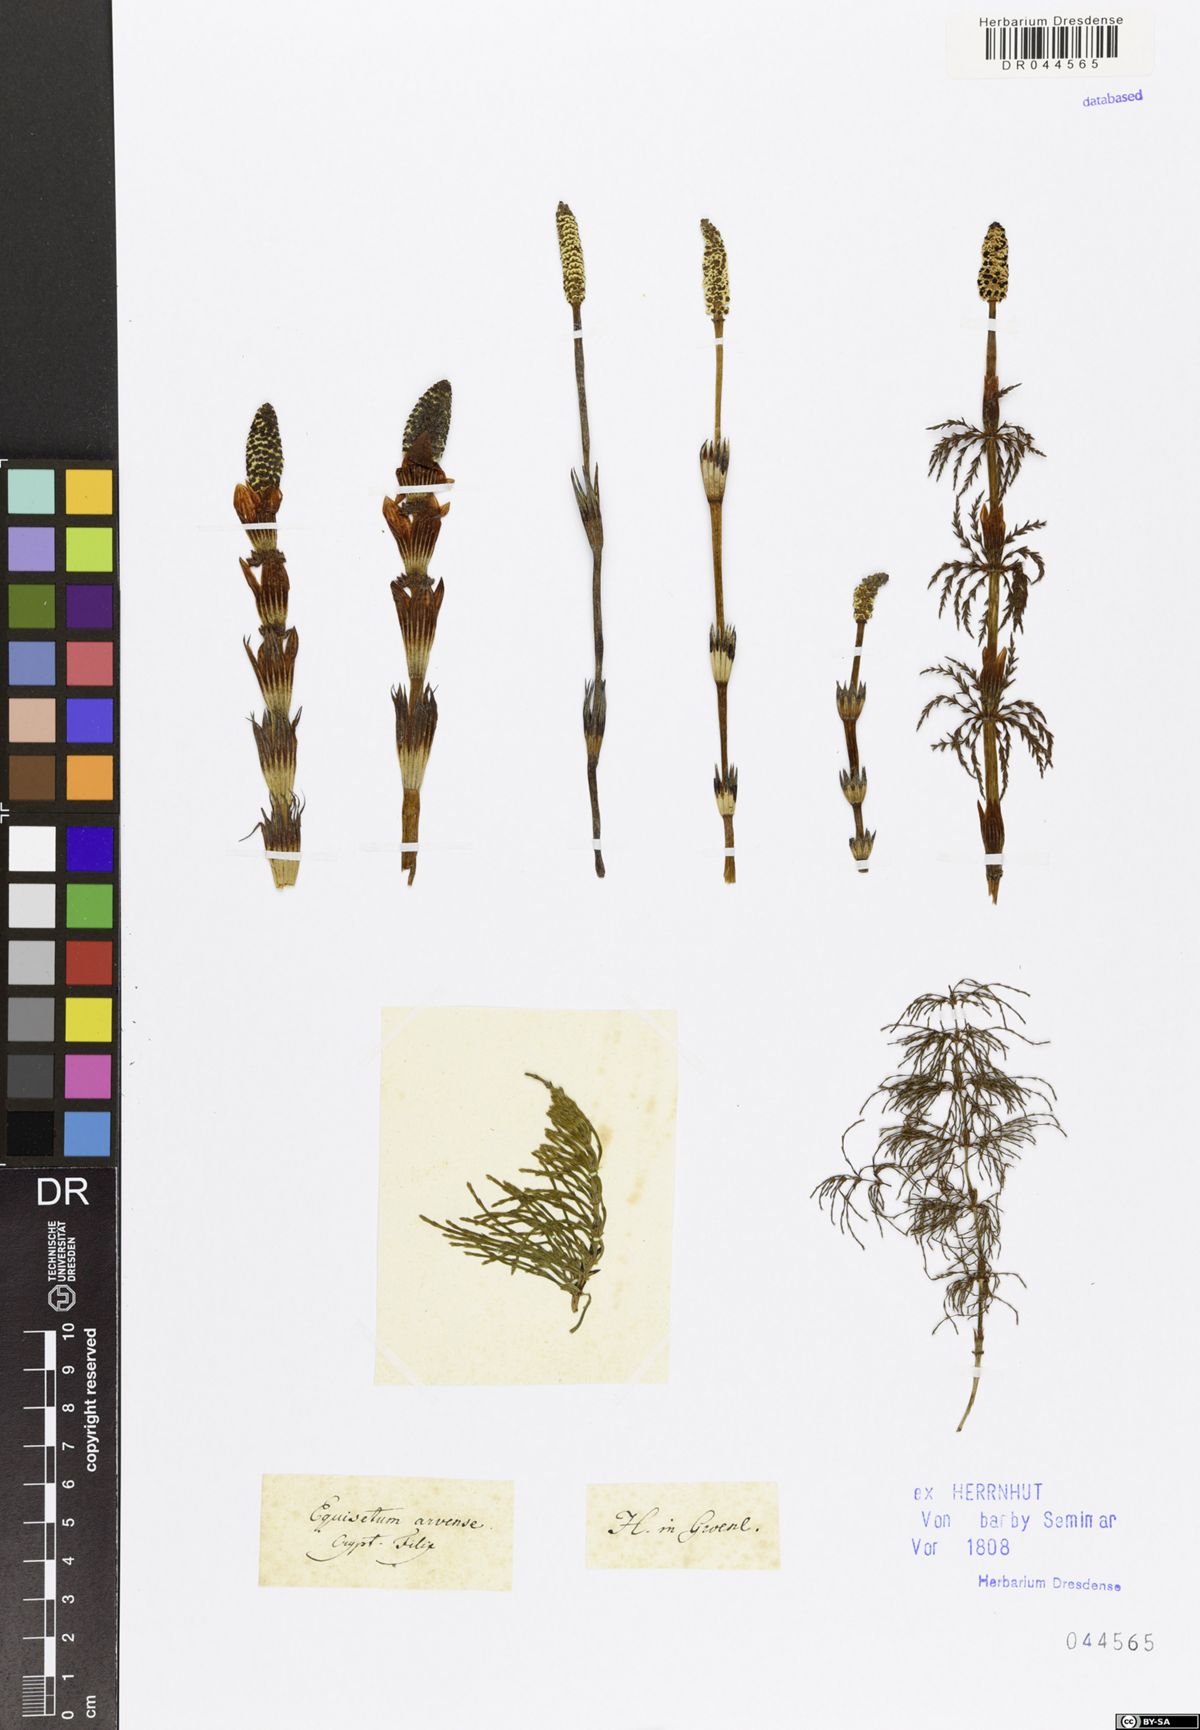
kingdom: Plantae
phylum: Tracheophyta
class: Polypodiopsida
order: Equisetales
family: Equisetaceae
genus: Equisetum
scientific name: Equisetum arvense
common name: Field horsetail
